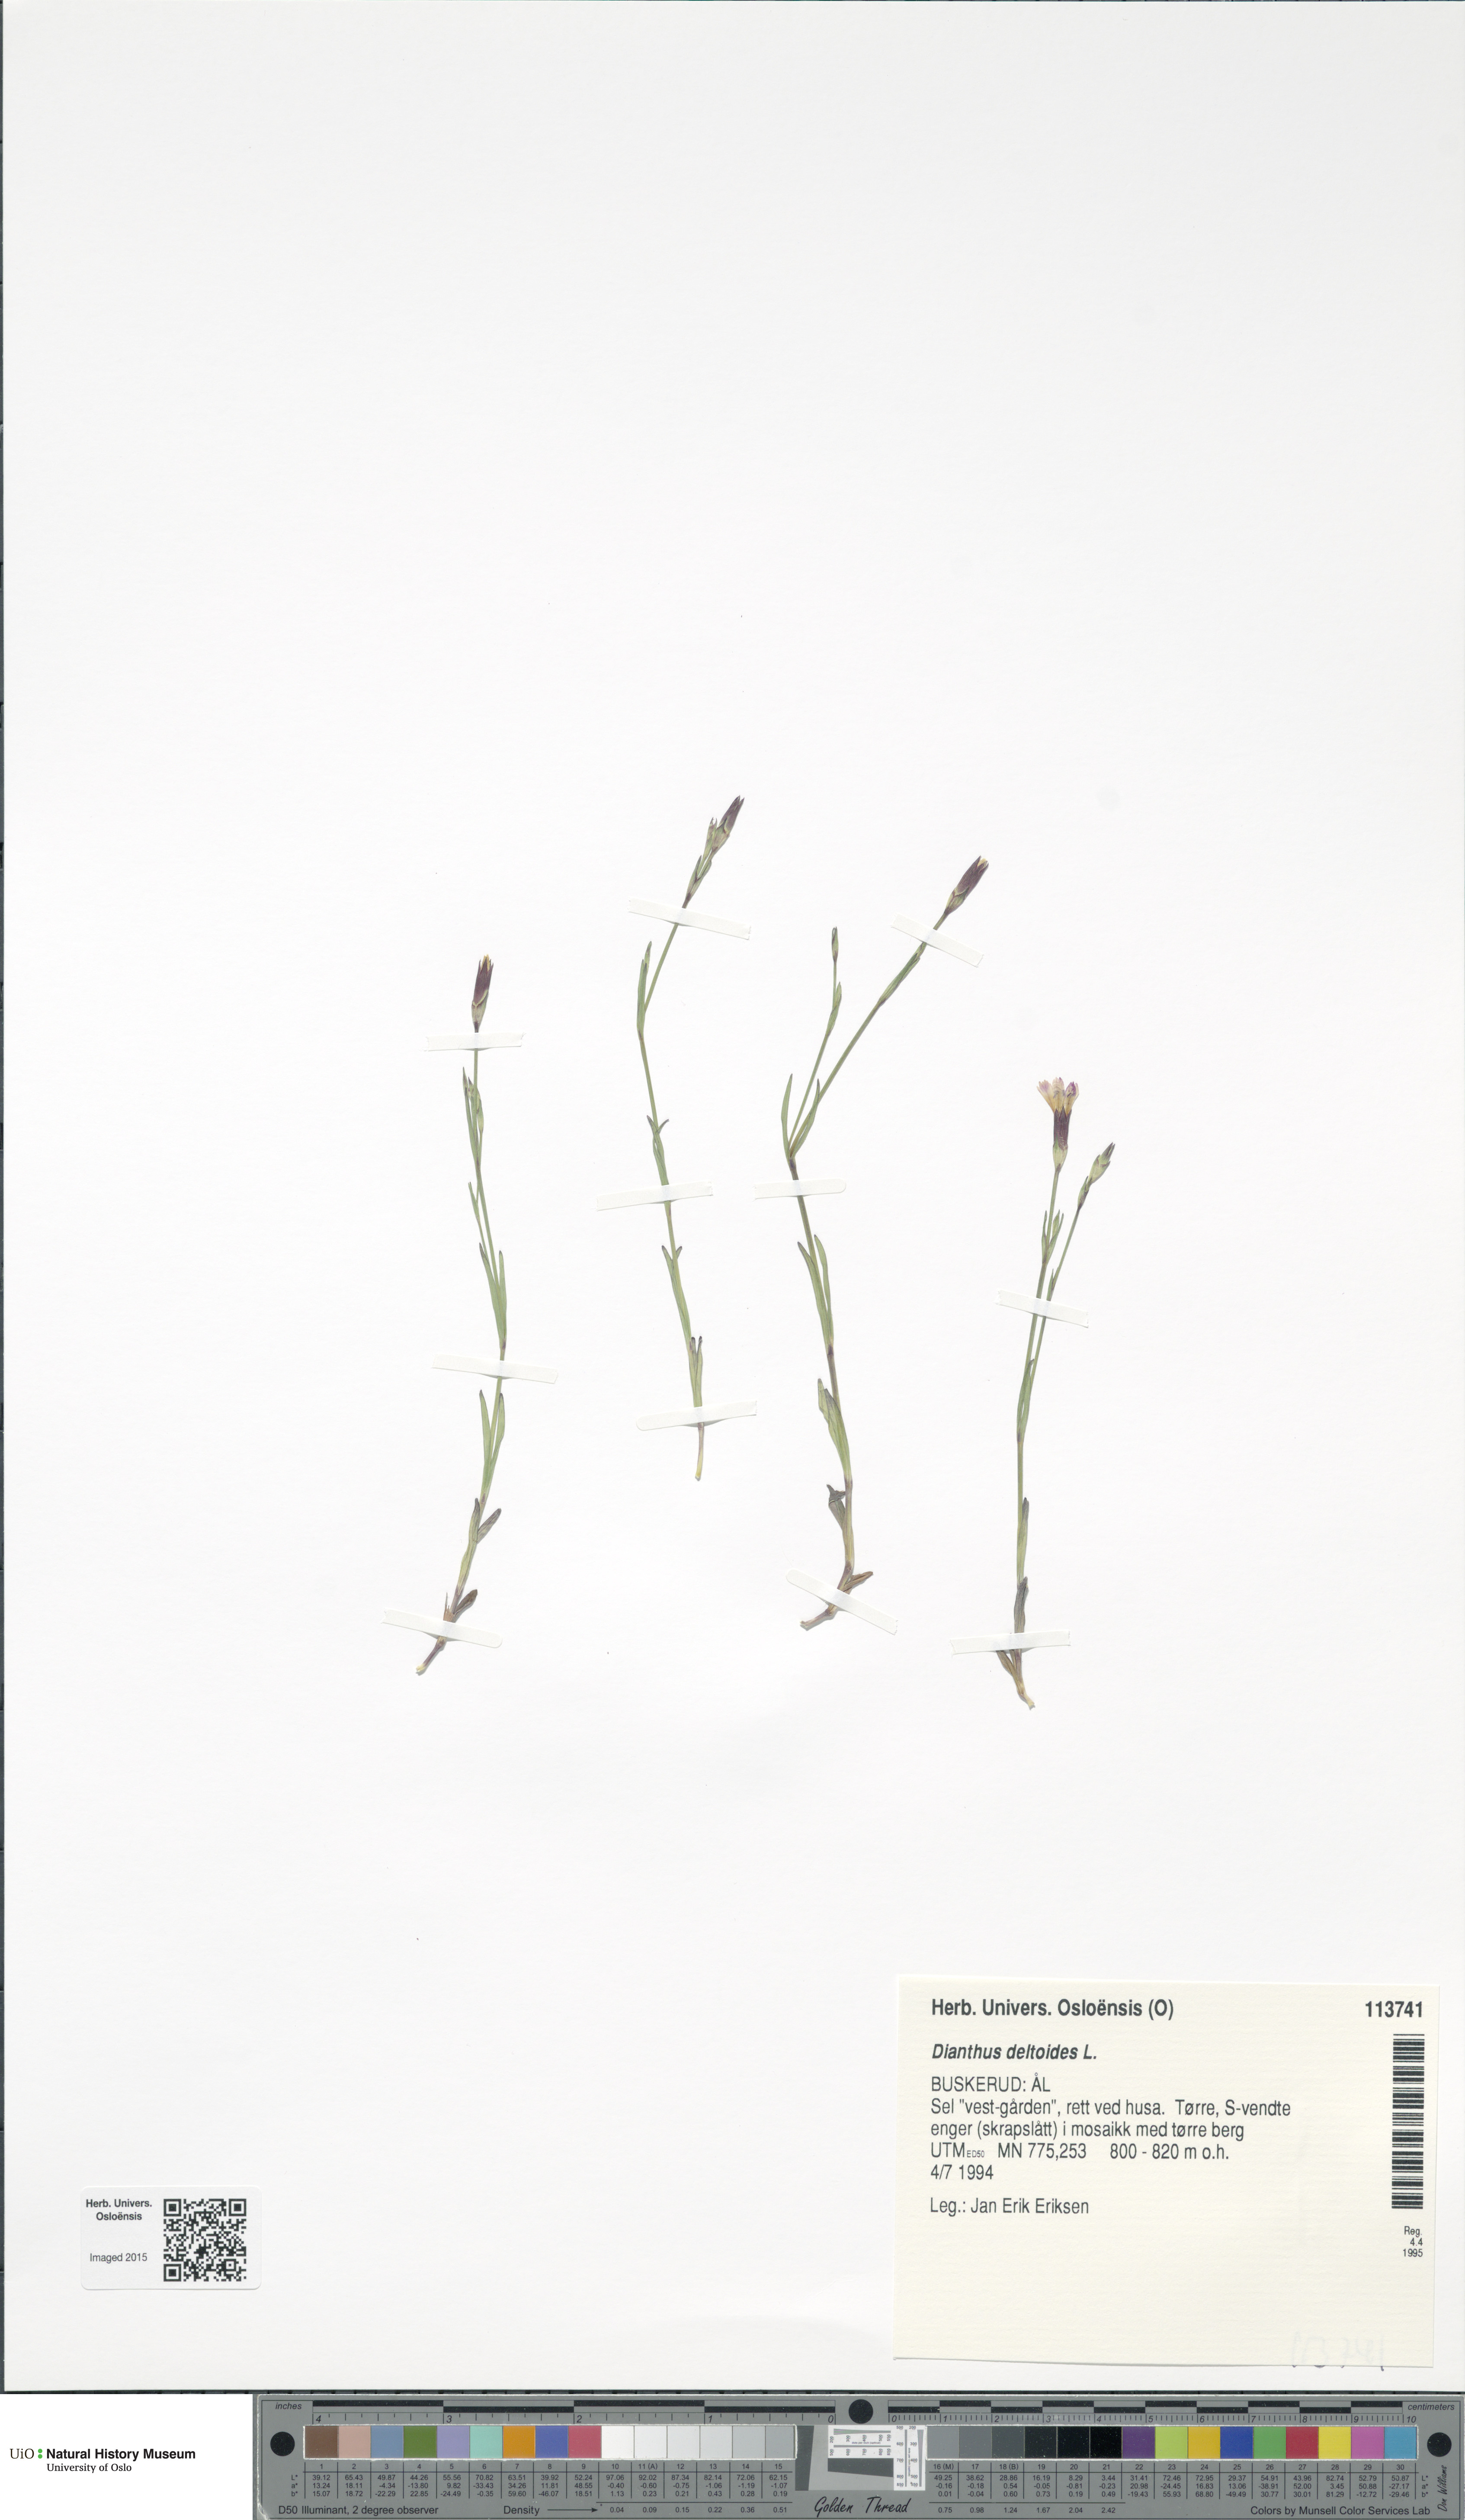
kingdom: Plantae
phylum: Tracheophyta
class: Magnoliopsida
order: Caryophyllales
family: Caryophyllaceae
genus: Dianthus
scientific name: Dianthus deltoides
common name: Maiden pink
